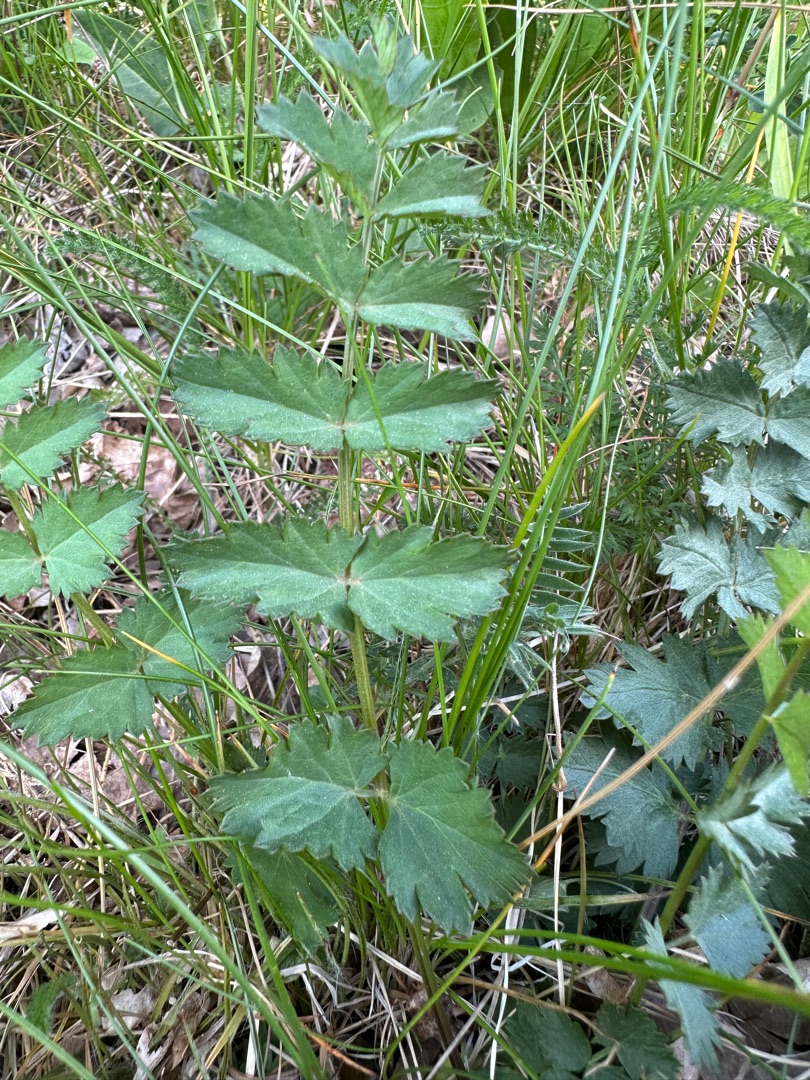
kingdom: Plantae
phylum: Tracheophyta
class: Magnoliopsida
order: Apiales
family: Apiaceae
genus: Pimpinella
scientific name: Pimpinella saxifraga
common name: Almindelig pimpinelle
